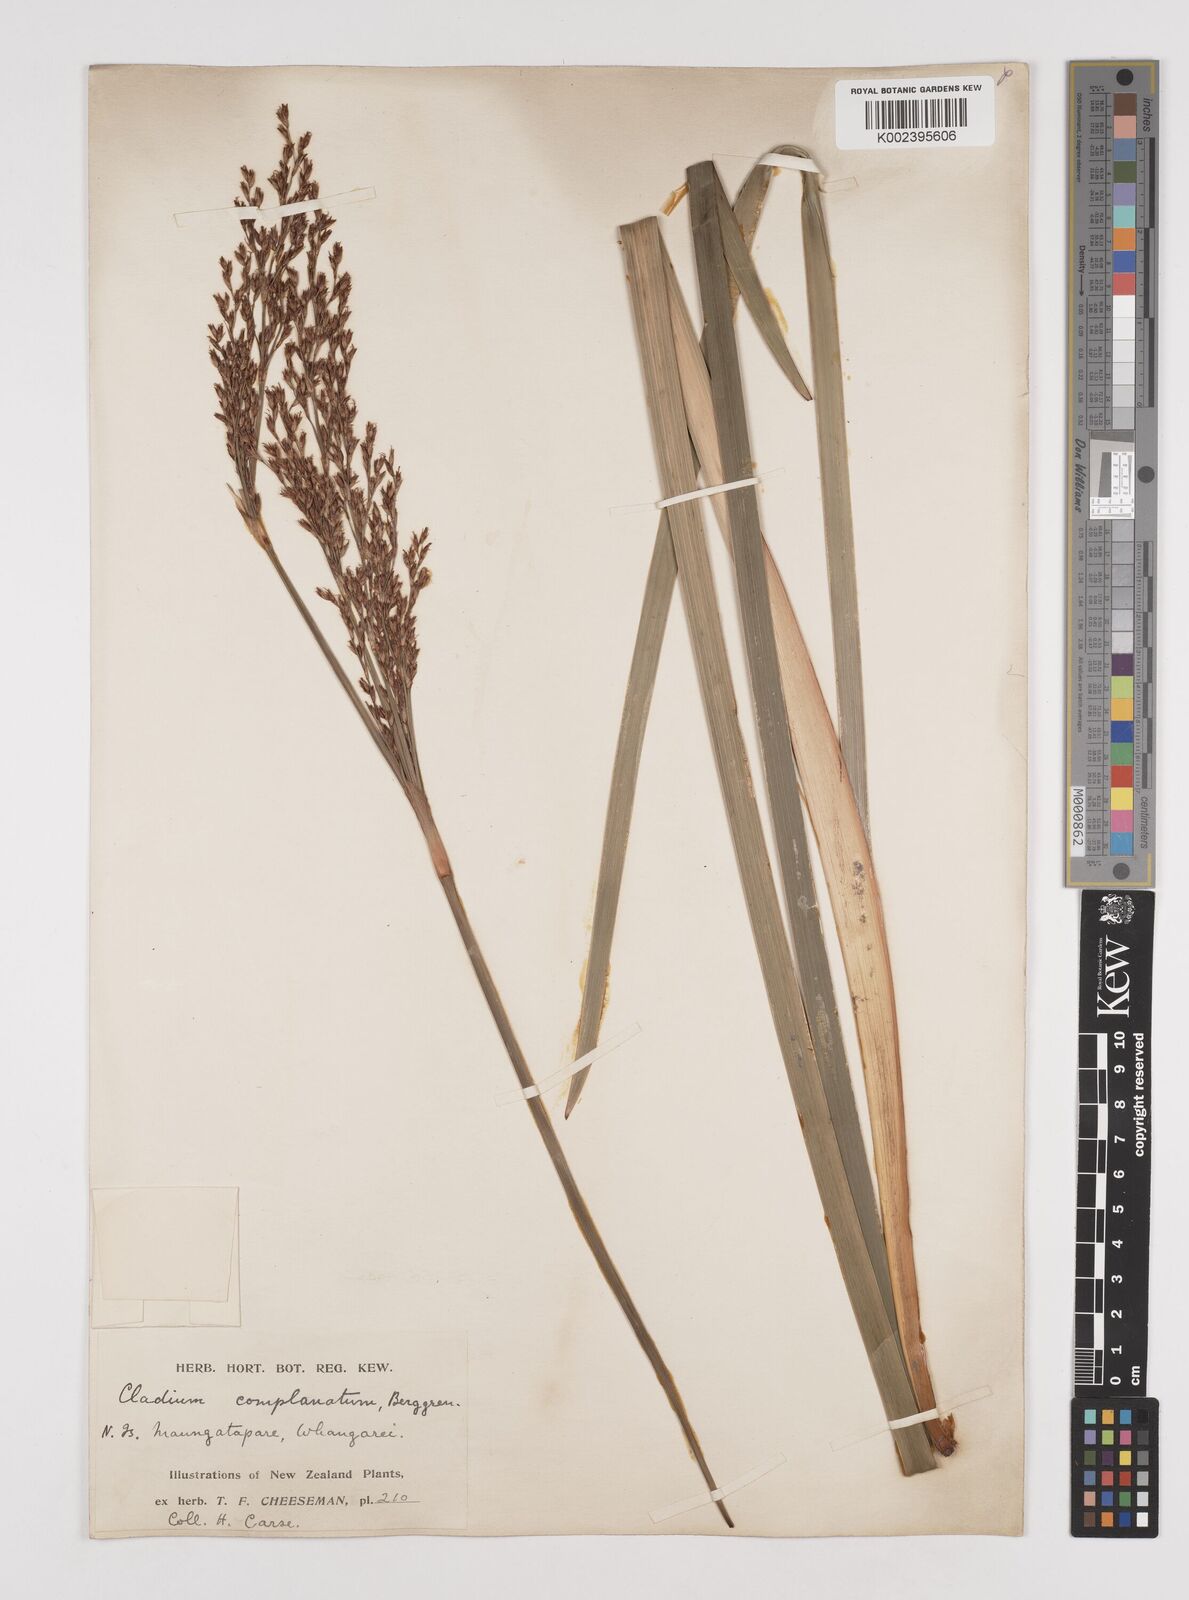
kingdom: Plantae
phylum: Tracheophyta
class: Liliopsida
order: Poales
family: Cyperaceae
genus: Machaerina
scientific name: Machaerina complanata
